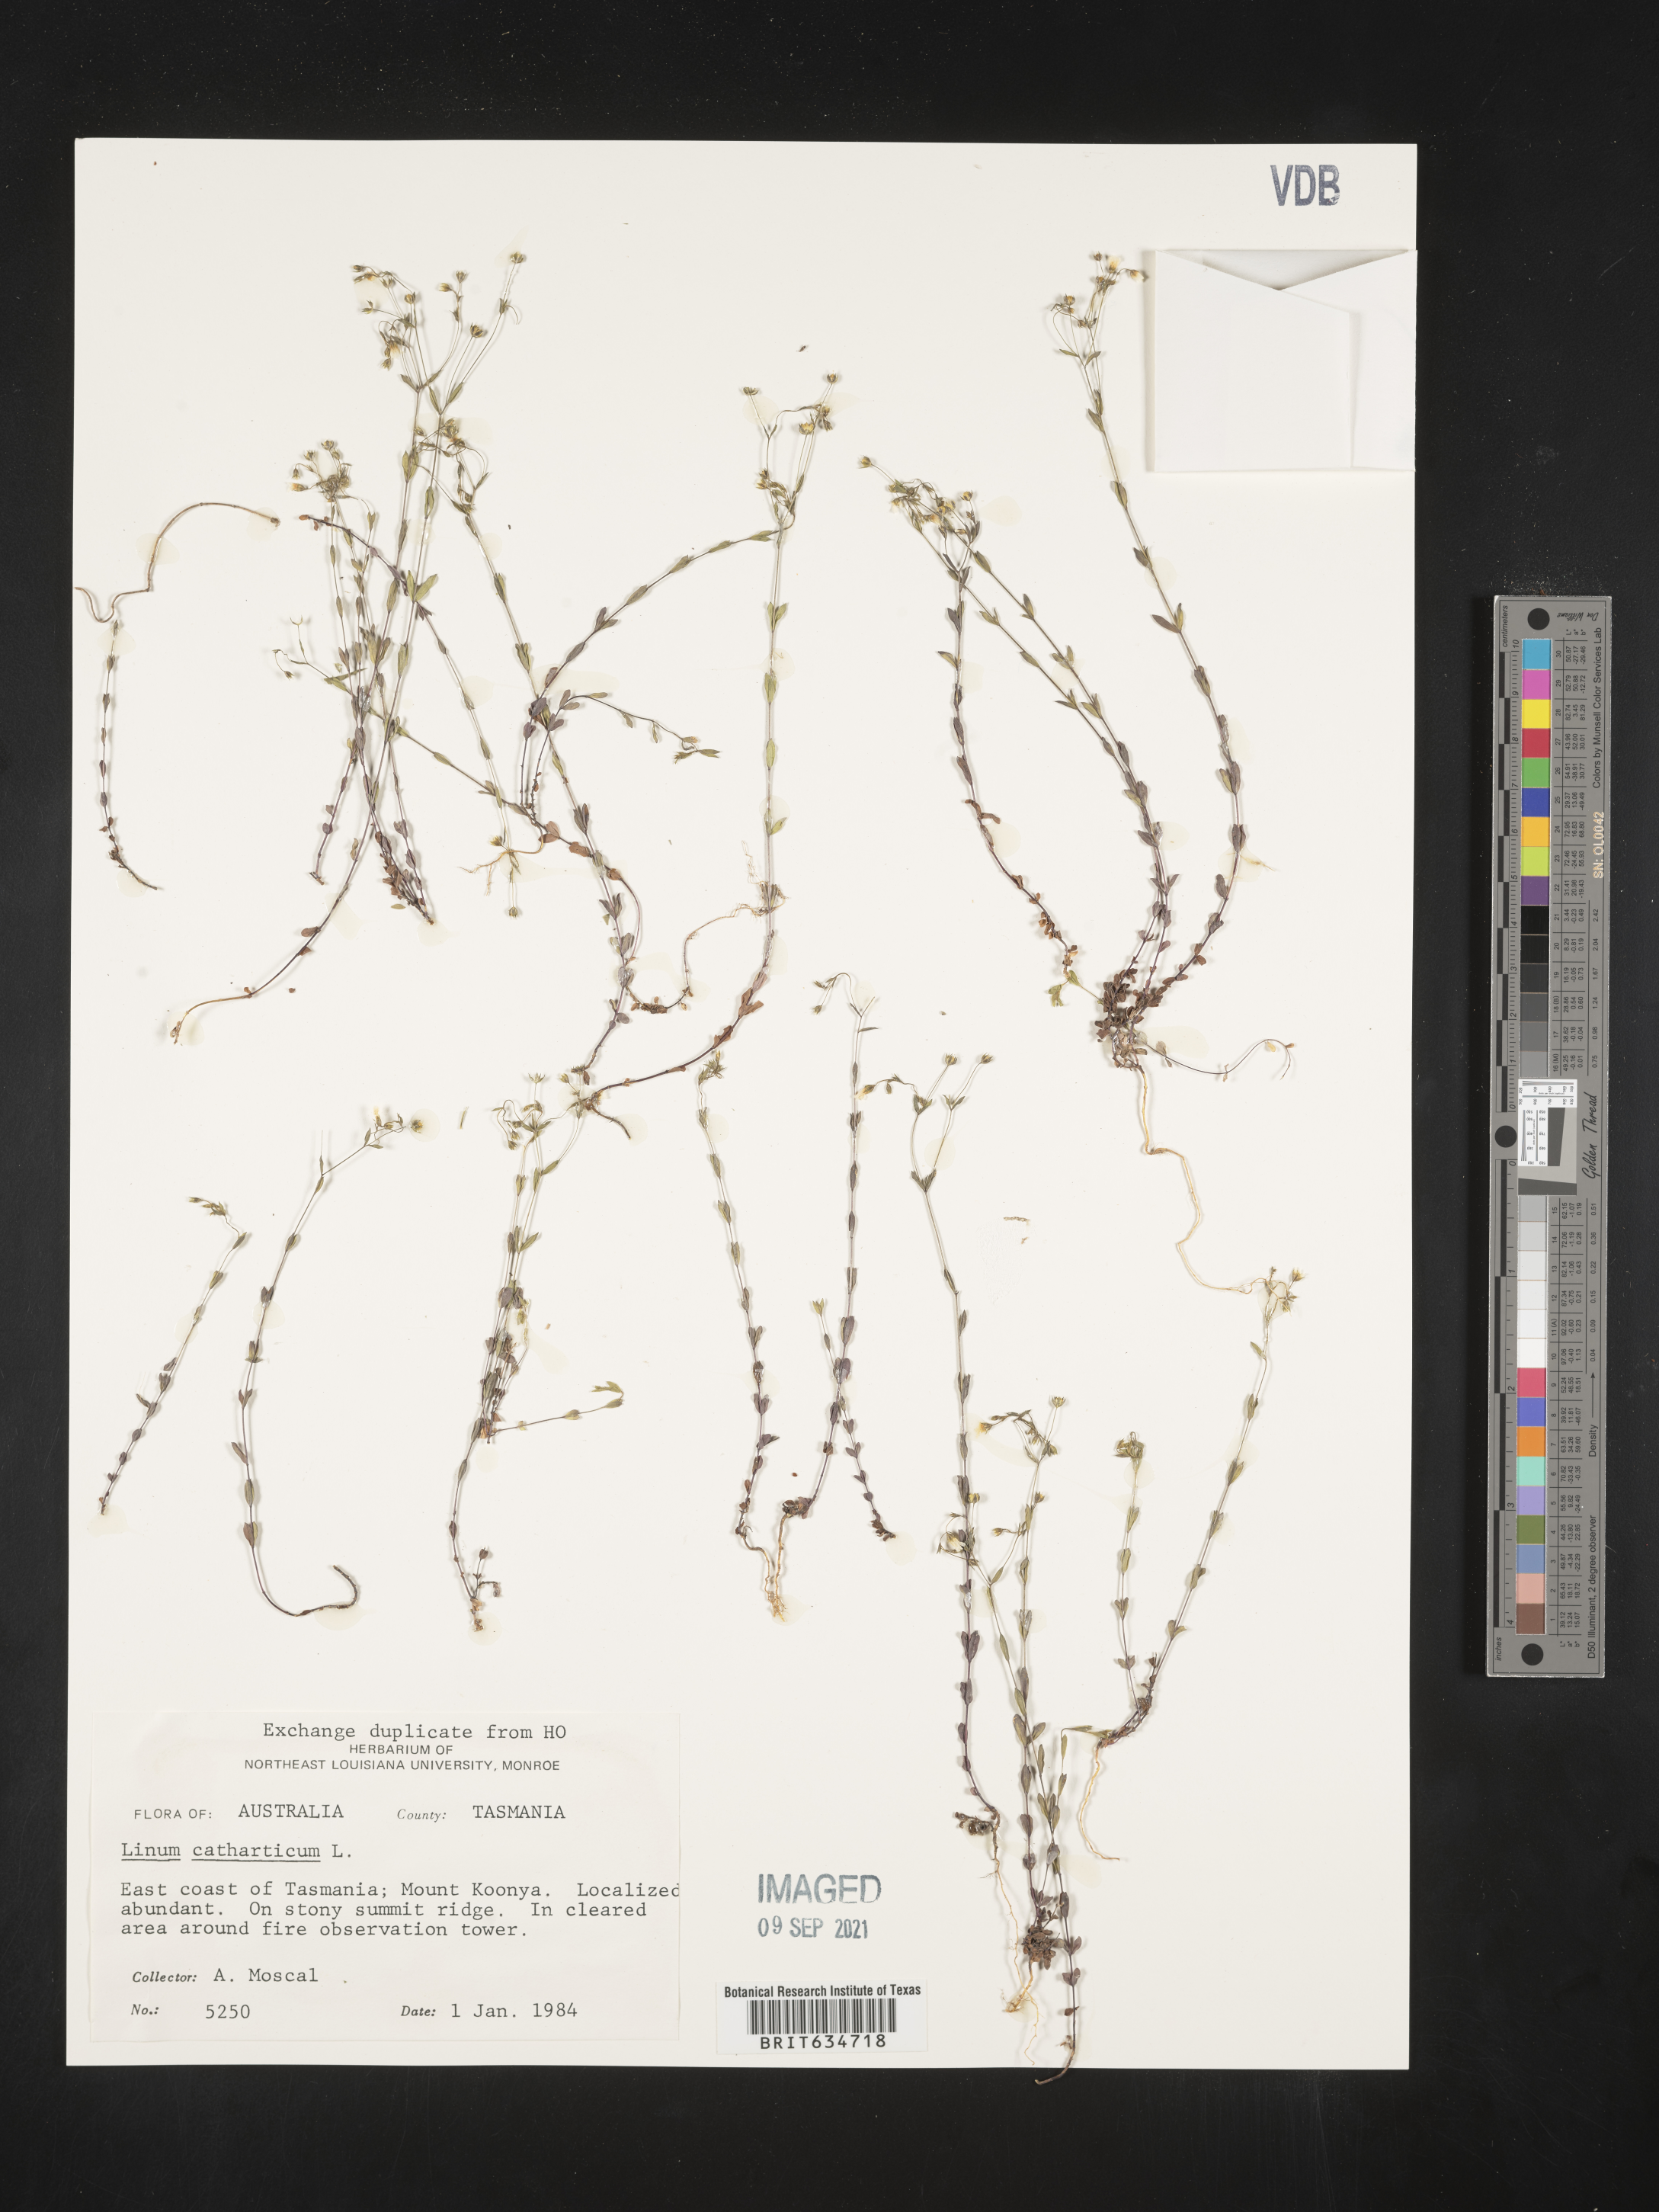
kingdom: Plantae
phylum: Tracheophyta
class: Magnoliopsida
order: Malpighiales
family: Linaceae
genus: Linum
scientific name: Linum
